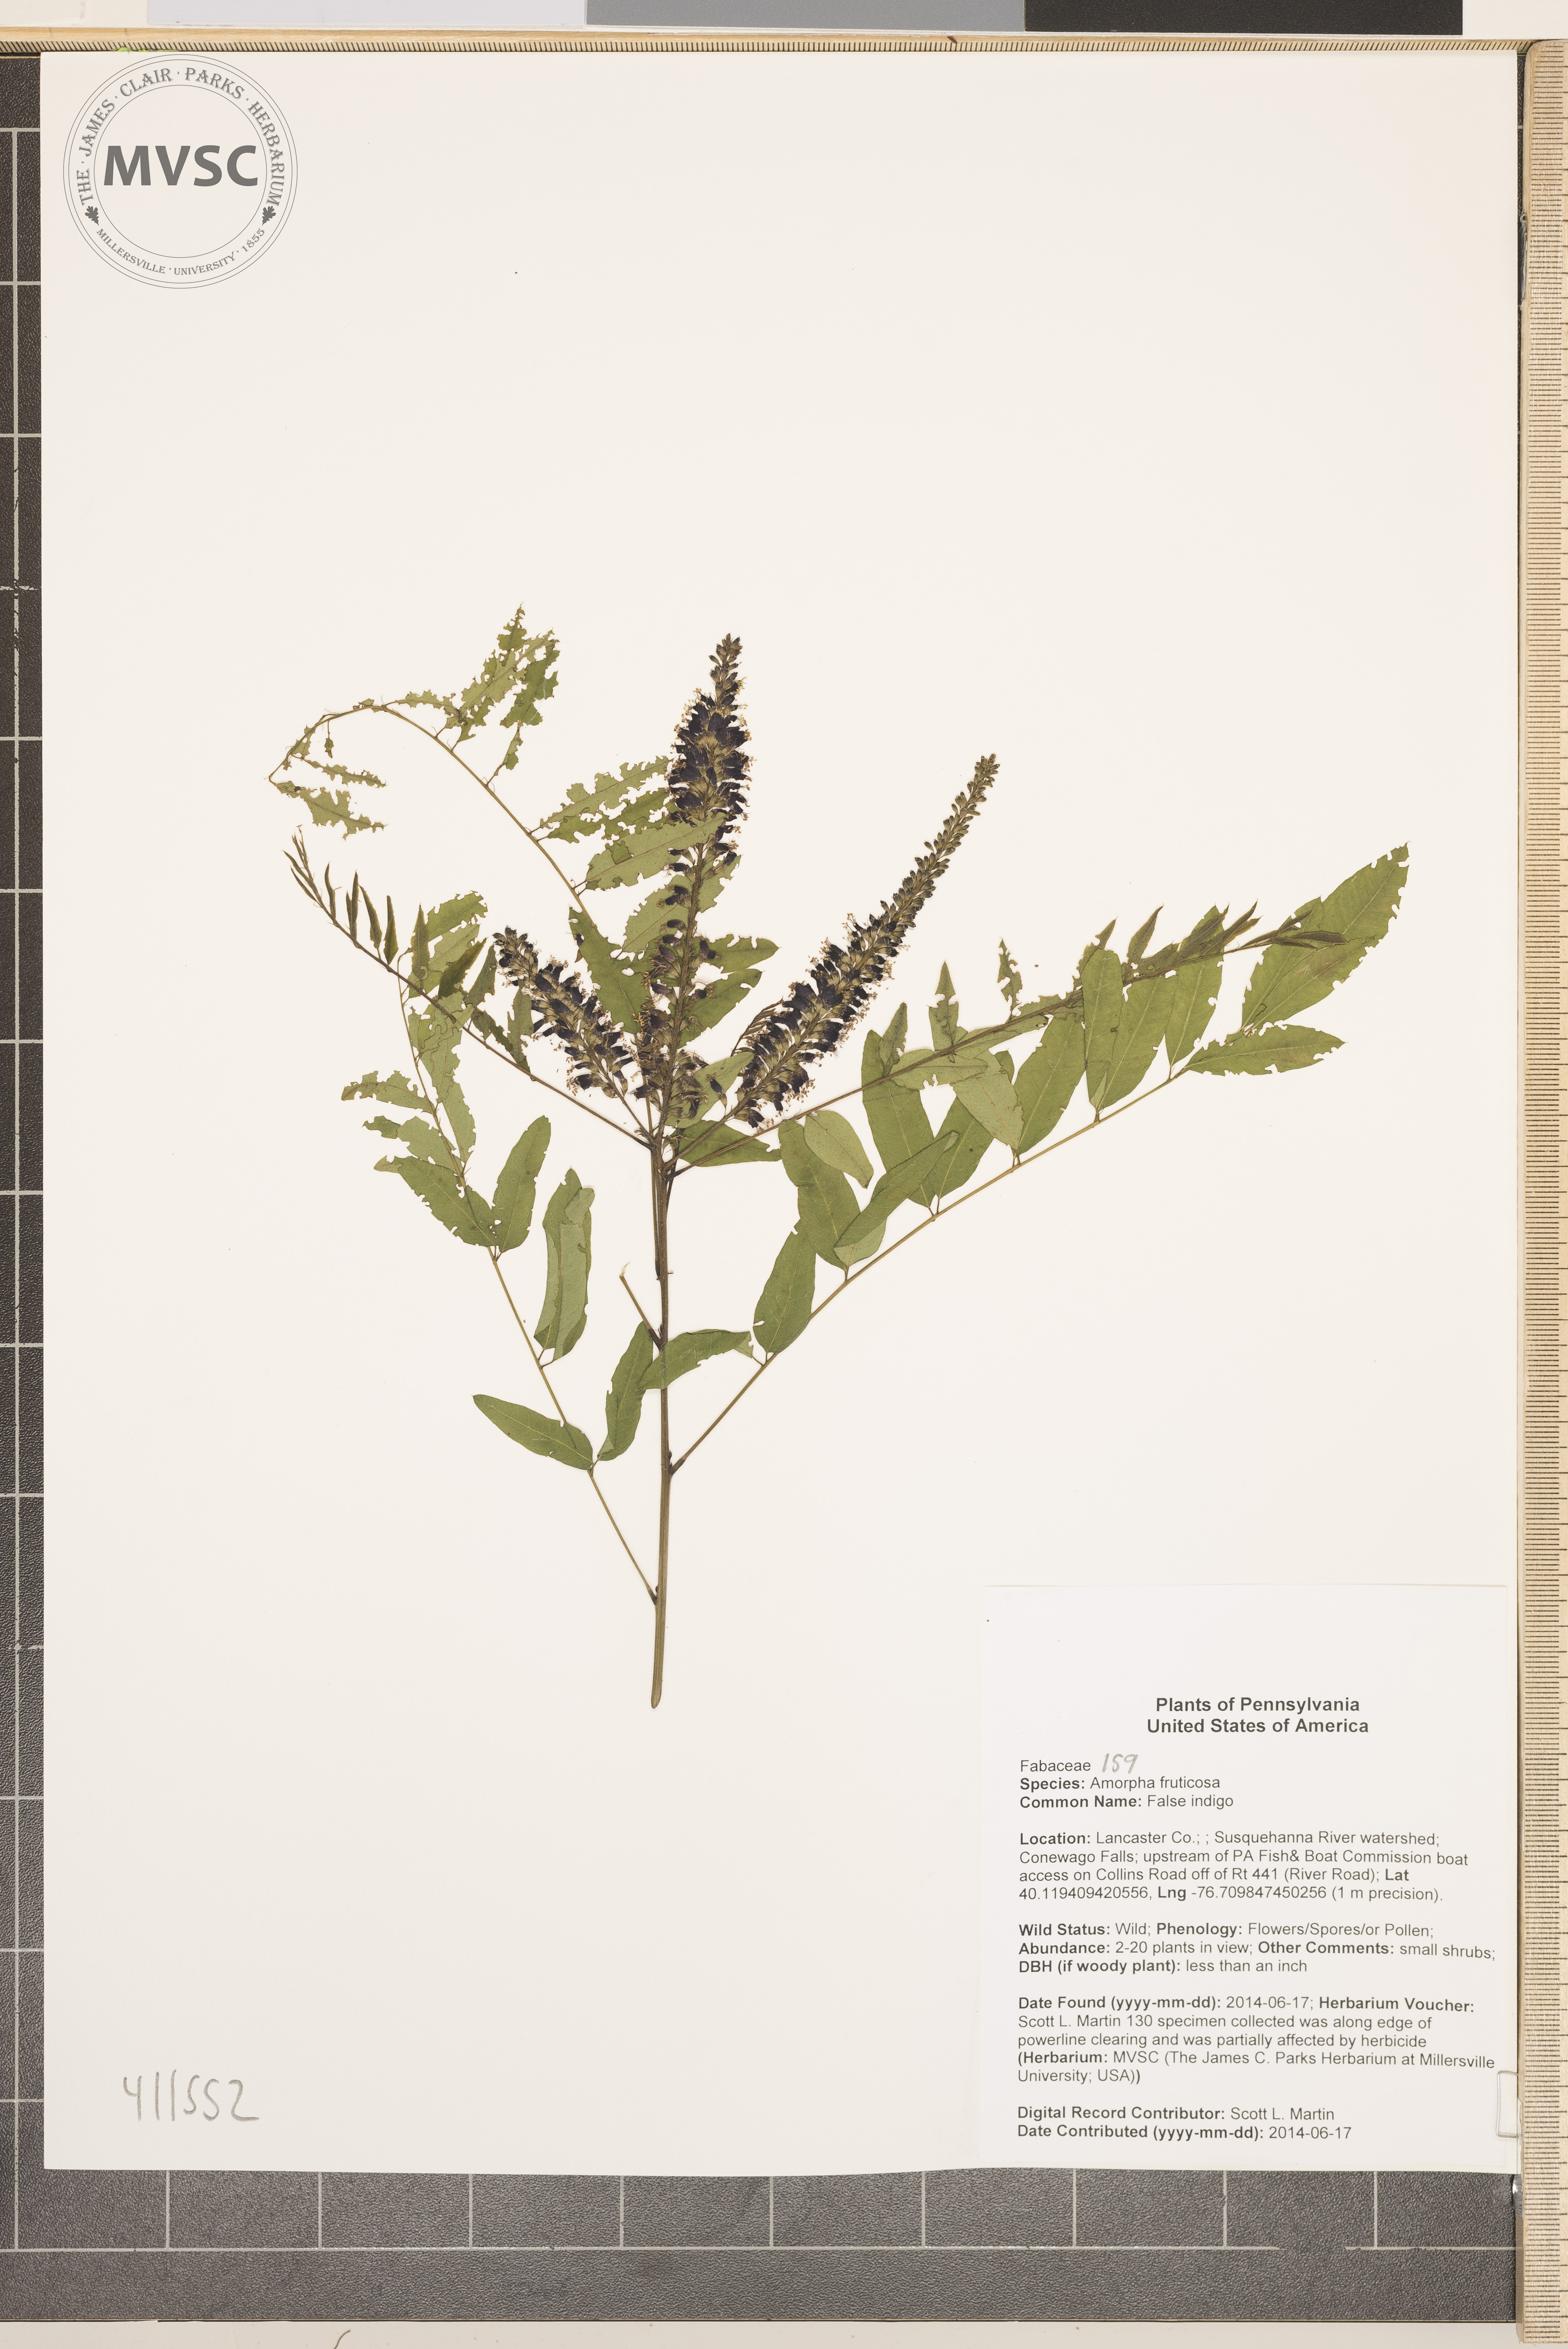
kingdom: Plantae
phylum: Tracheophyta
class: Magnoliopsida
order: Fabales
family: Fabaceae
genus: Amorpha
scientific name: Amorpha fruticosa
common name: False indigo
